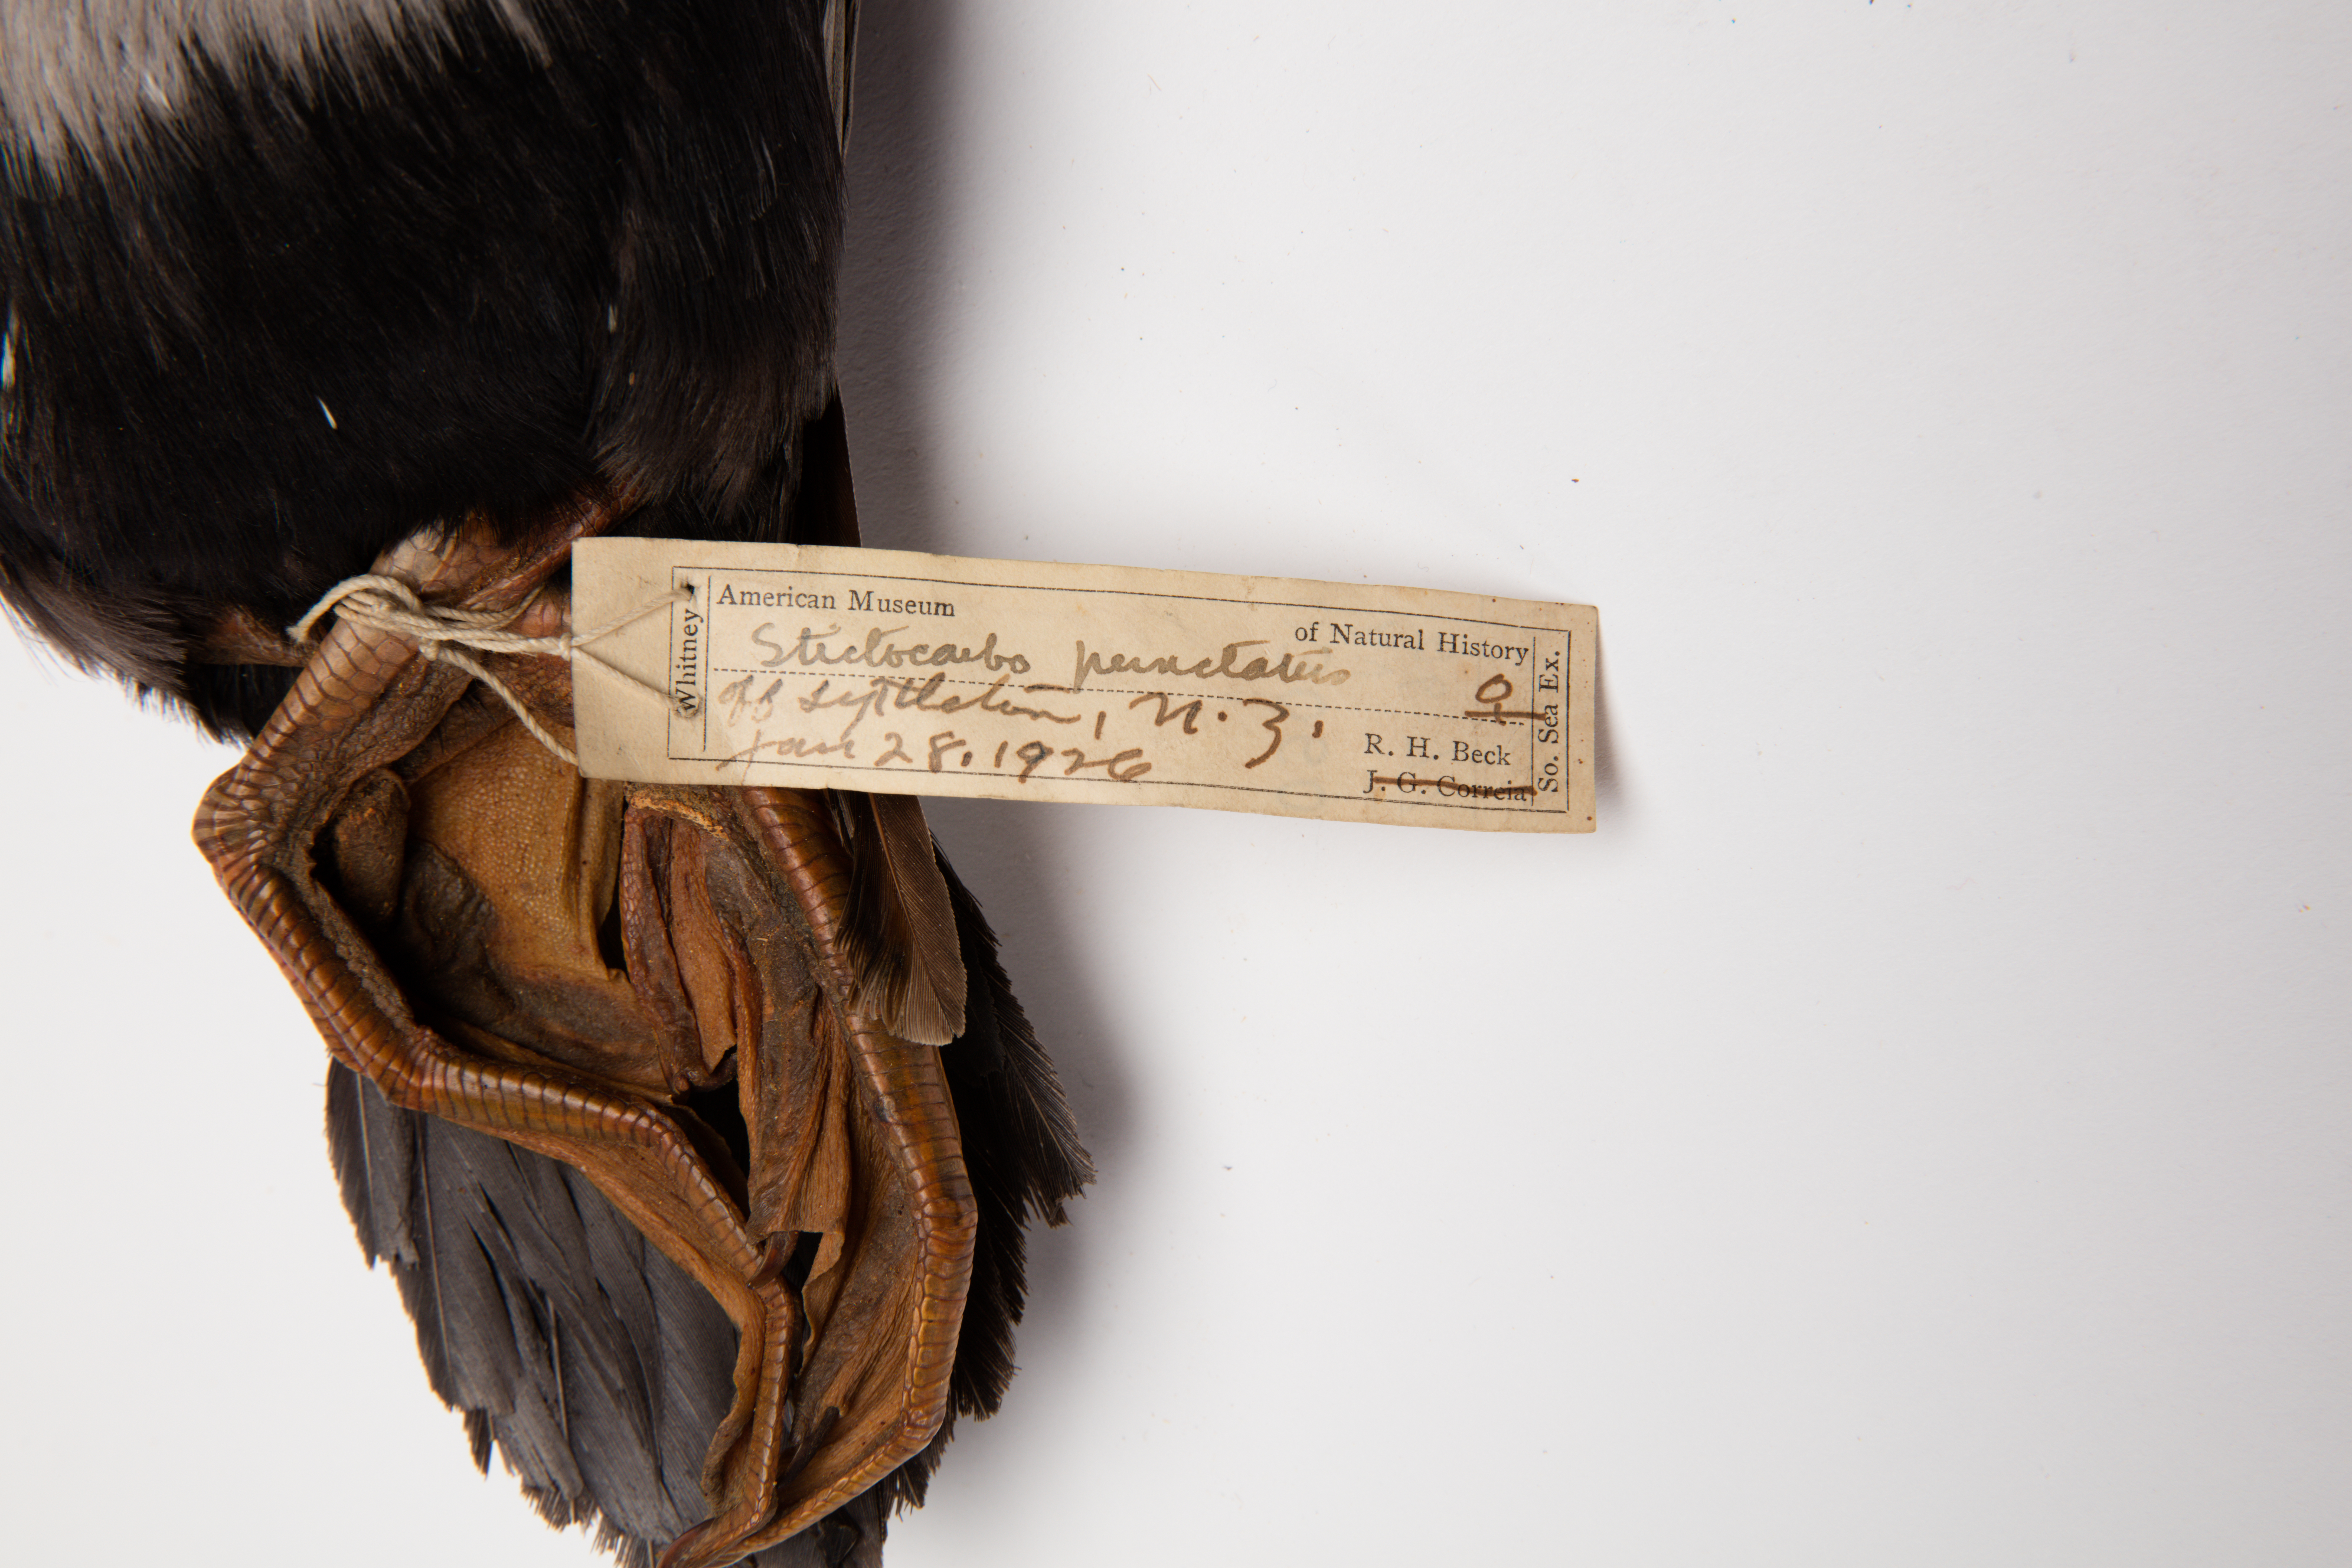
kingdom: Animalia
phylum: Chordata
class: Aves
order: Suliformes
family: Phalacrocoracidae
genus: Phalacrocorax
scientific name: Phalacrocorax punctatus
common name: Spotted shag
